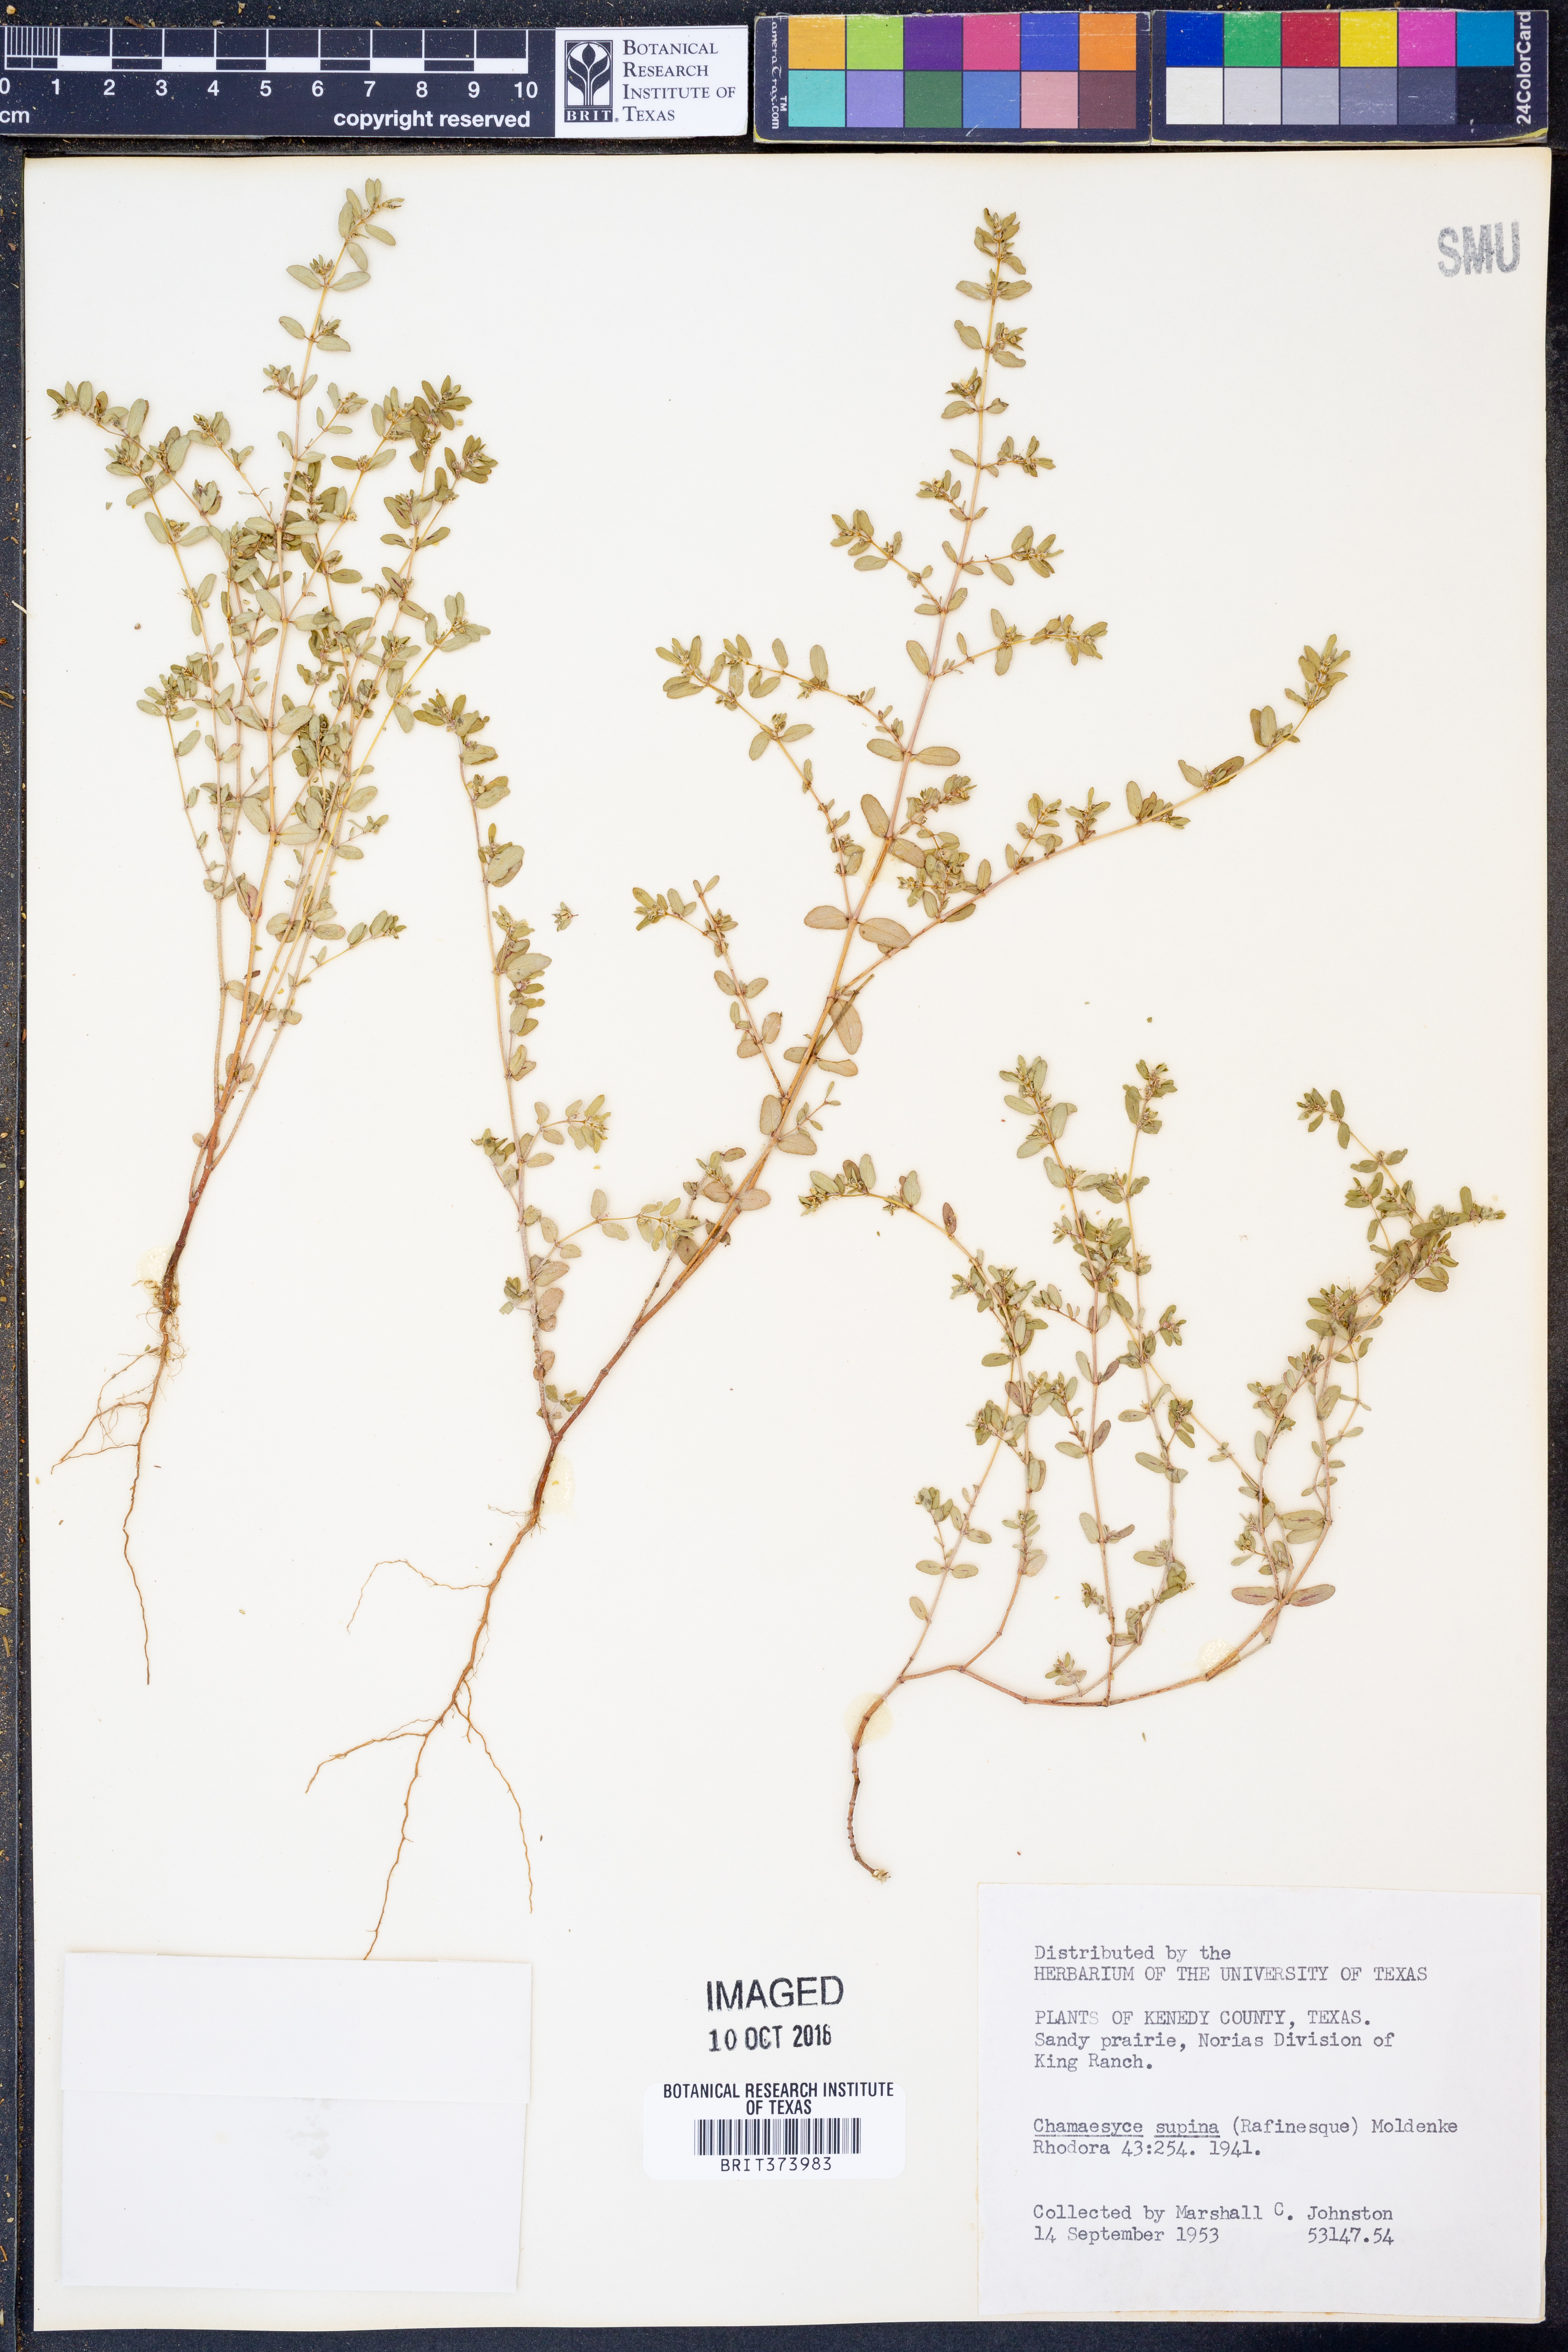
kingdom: Plantae
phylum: Tracheophyta
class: Magnoliopsida
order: Malpighiales
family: Euphorbiaceae
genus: Euphorbia
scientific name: Euphorbia maculata
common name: Spotted spurge
